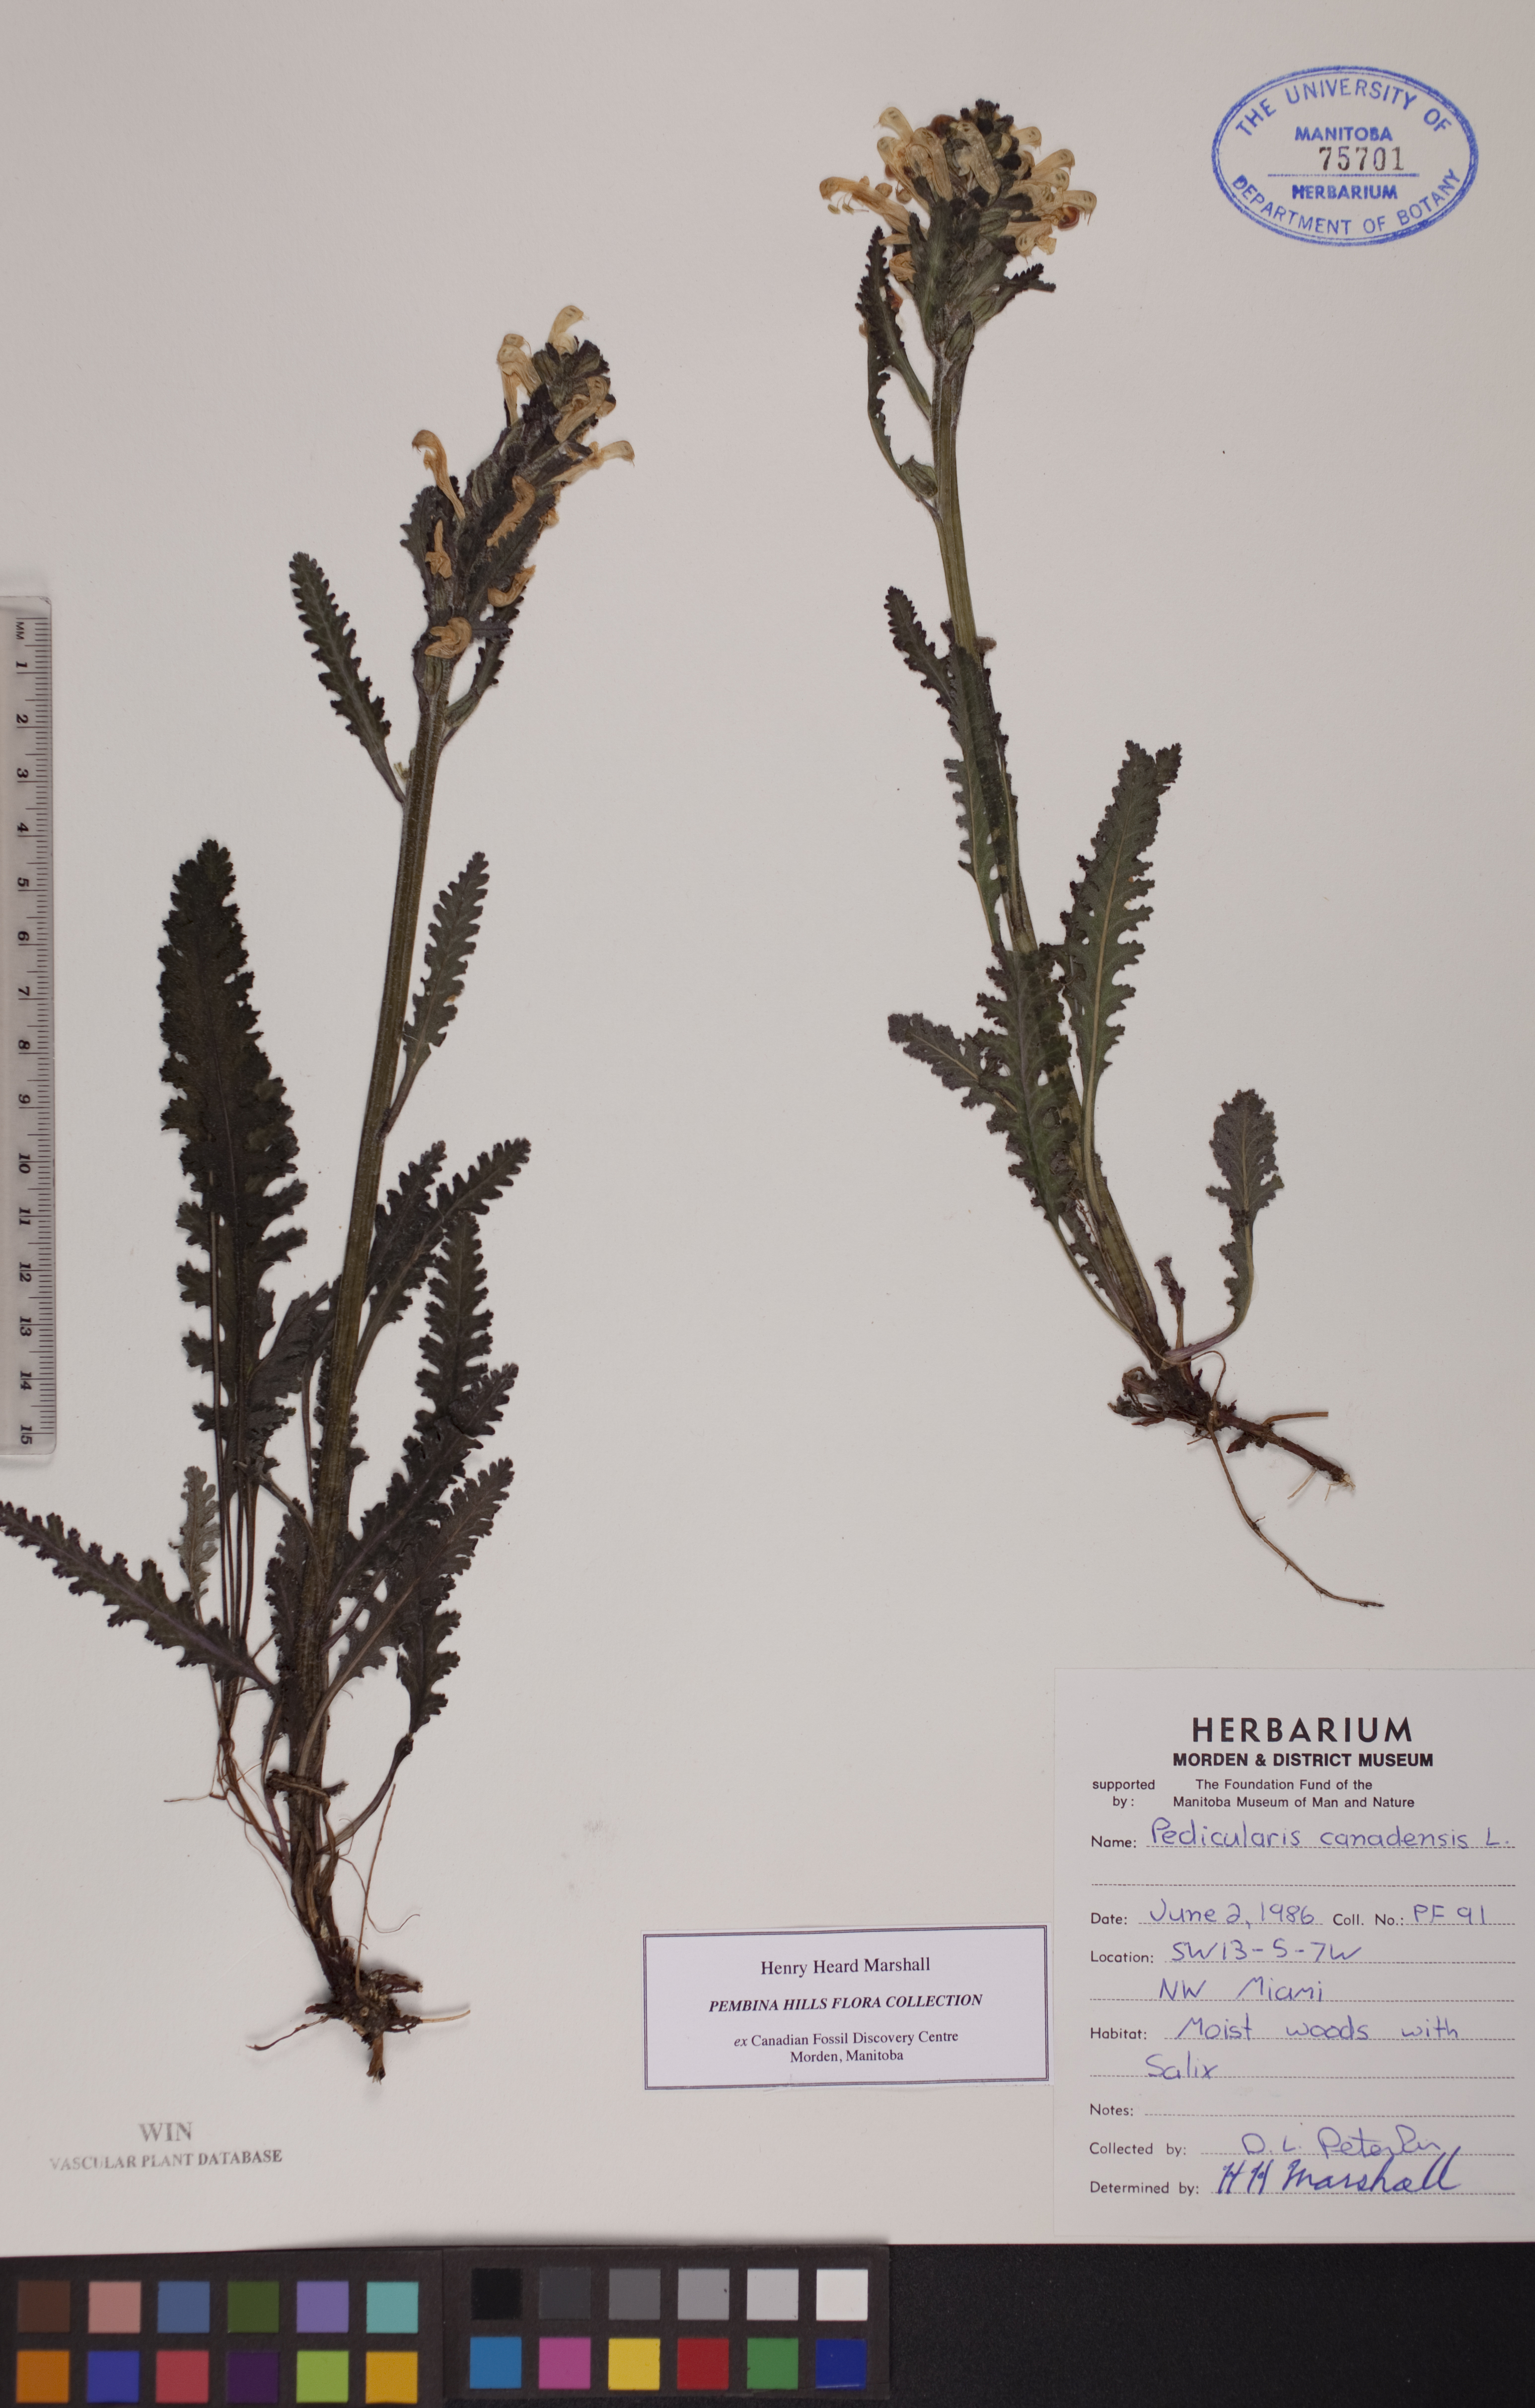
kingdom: Plantae
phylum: Tracheophyta
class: Magnoliopsida
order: Lamiales
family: Orobanchaceae
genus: Pedicularis
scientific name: Pedicularis canadensis
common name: Early lousewort
